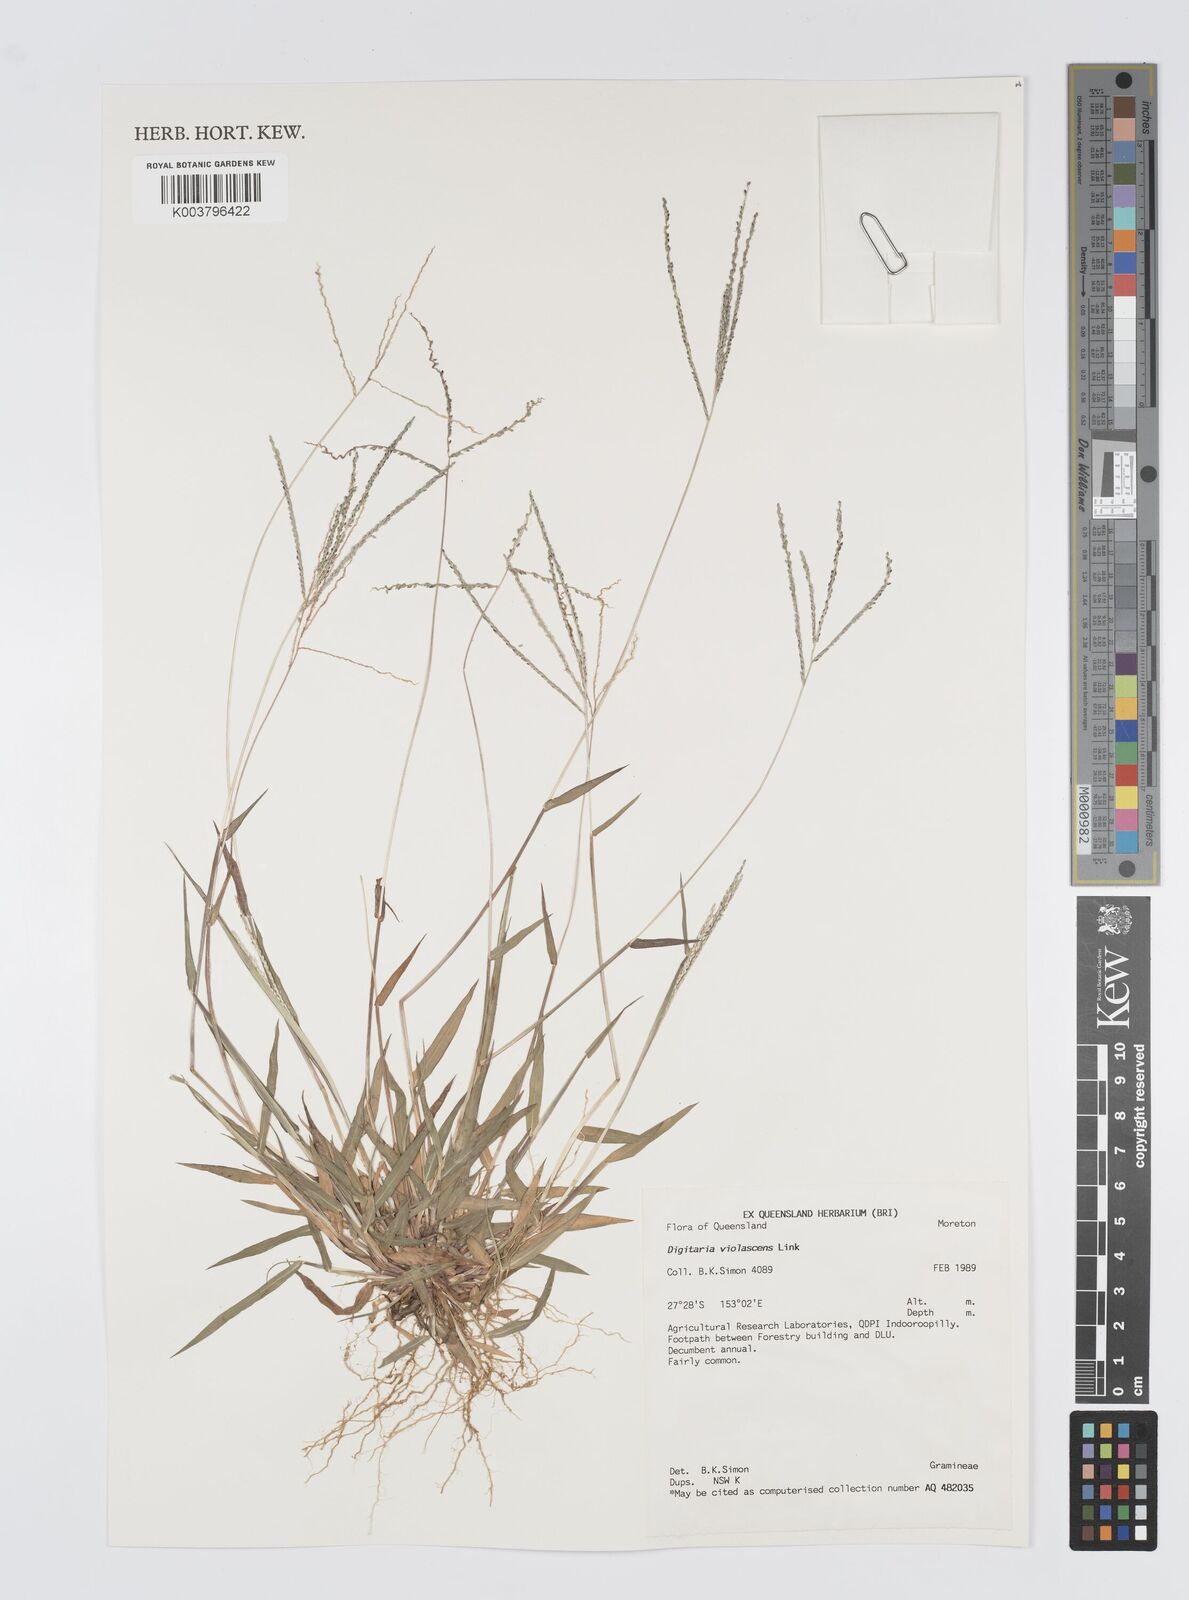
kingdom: Plantae
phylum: Tracheophyta
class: Liliopsida
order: Poales
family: Poaceae
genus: Digitaria
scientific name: Digitaria violascens
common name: Violet crabgrass
